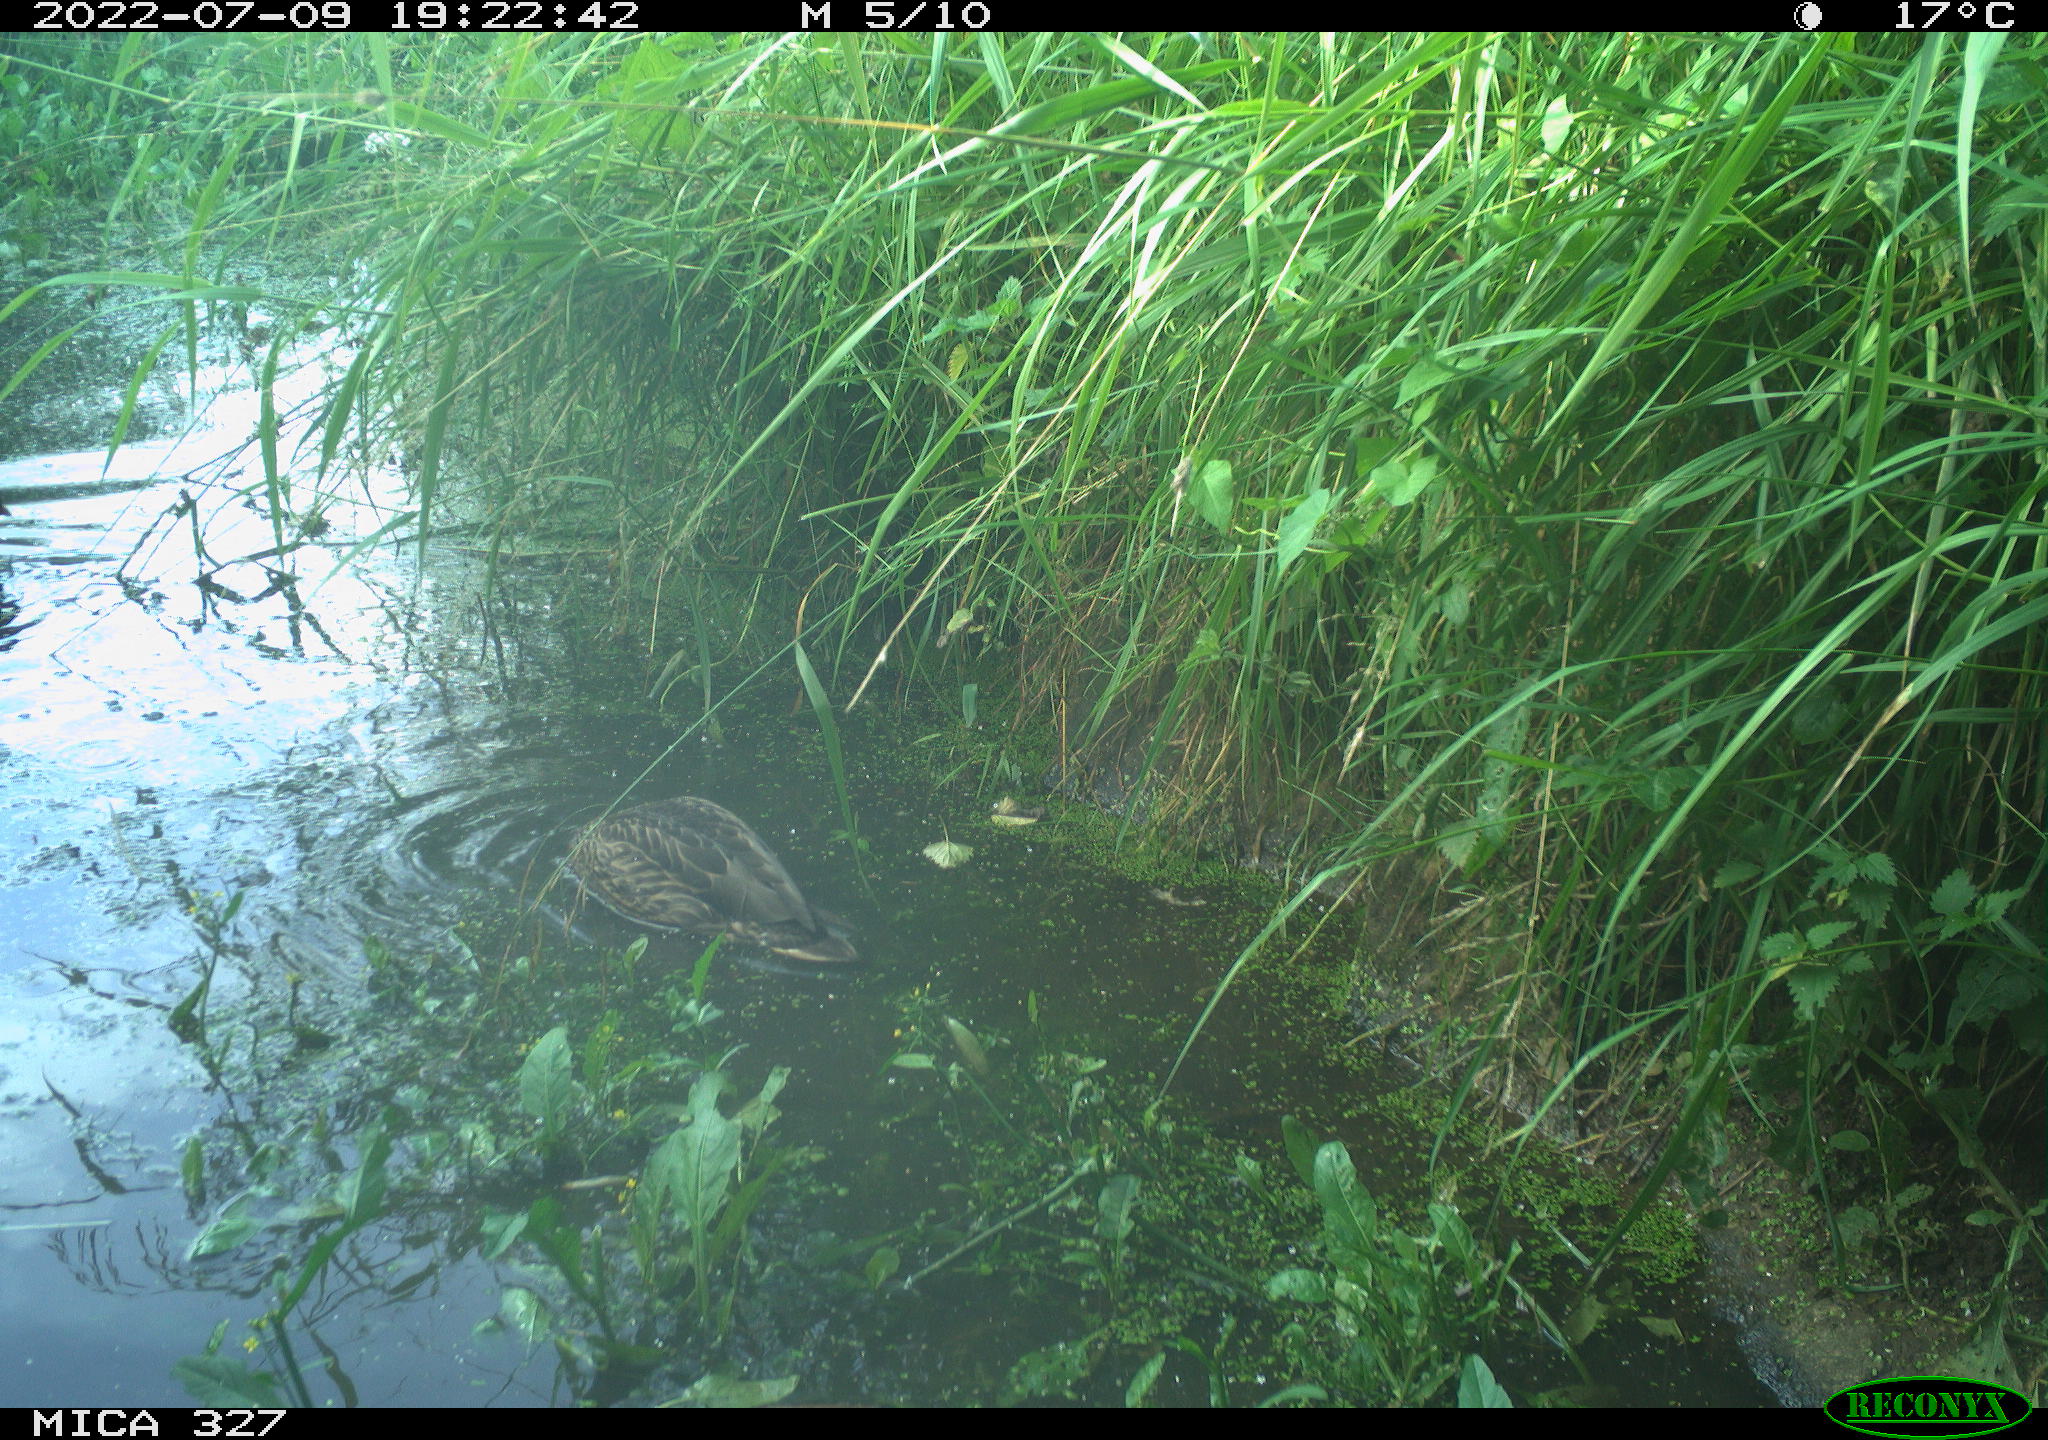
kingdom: Animalia
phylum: Chordata
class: Aves
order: Anseriformes
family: Anatidae
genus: Anas
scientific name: Anas
